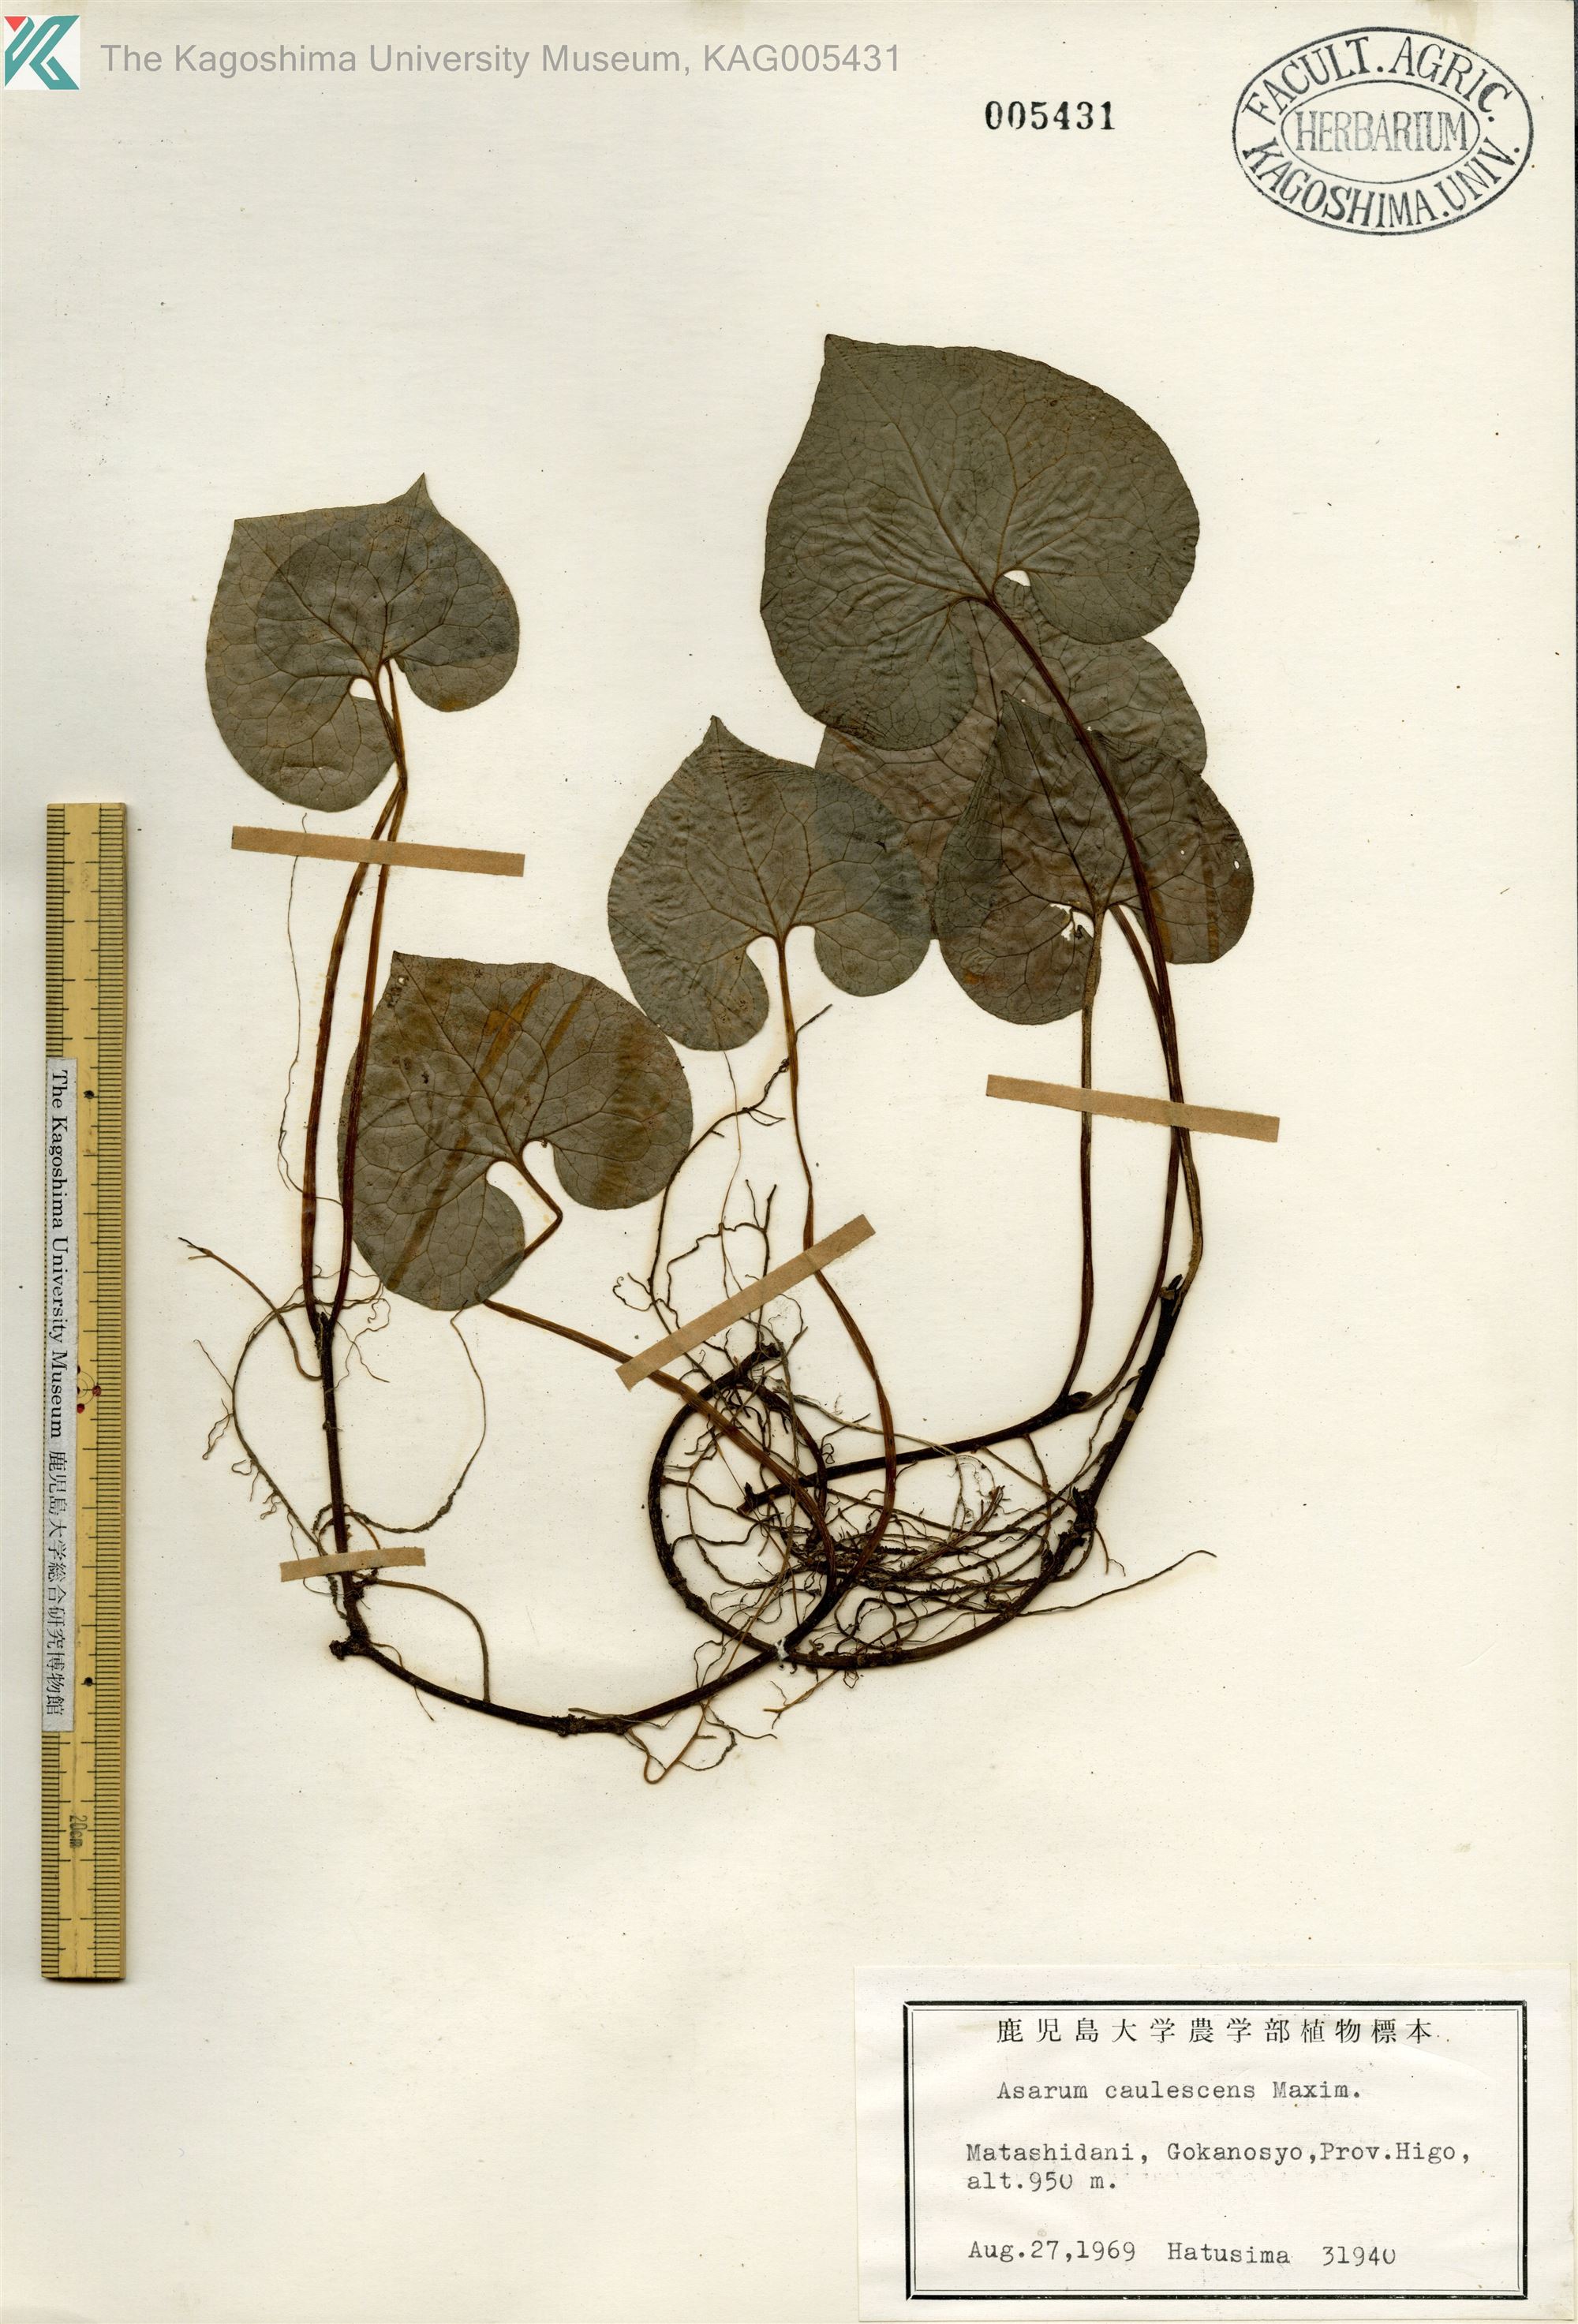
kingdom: Plantae
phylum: Tracheophyta
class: Magnoliopsida
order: Piperales
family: Aristolochiaceae
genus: Asarum
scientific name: Asarum caulescens
